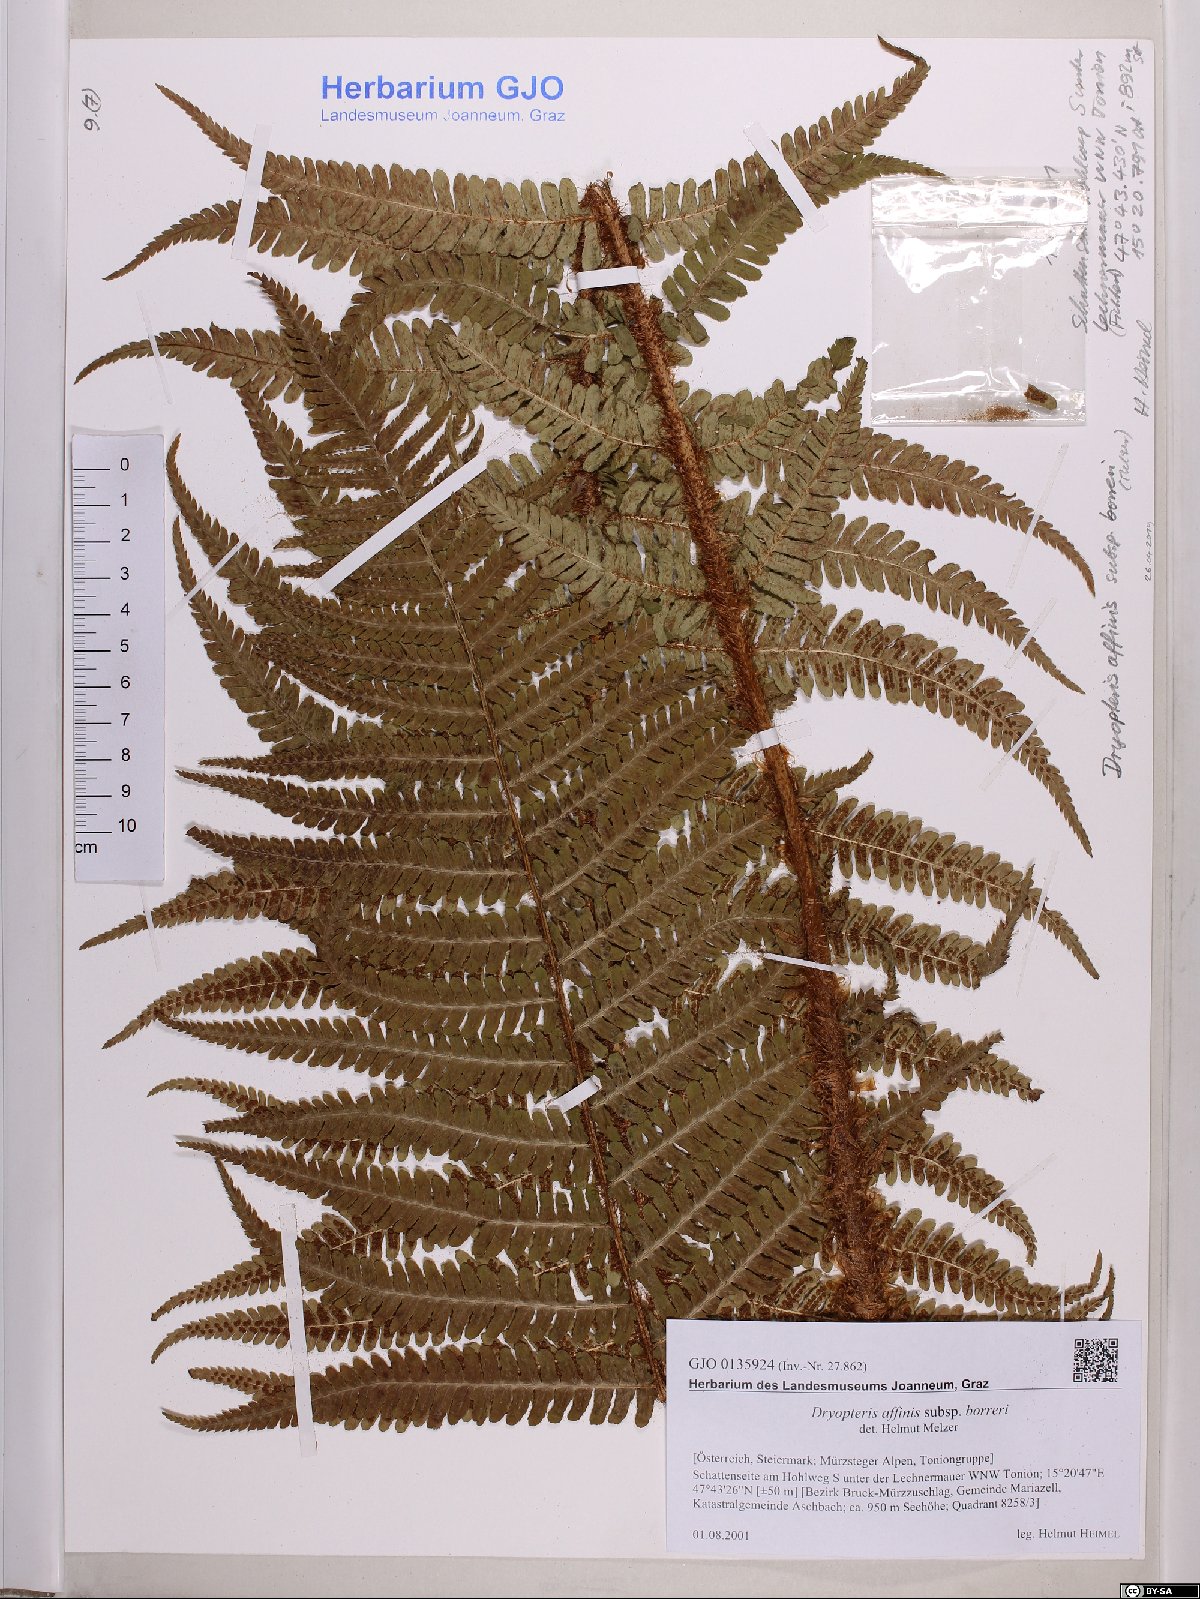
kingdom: Plantae
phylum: Tracheophyta
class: Polypodiopsida
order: Polypodiales
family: Dryopteridaceae
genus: Dryopteris
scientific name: Dryopteris borreri
